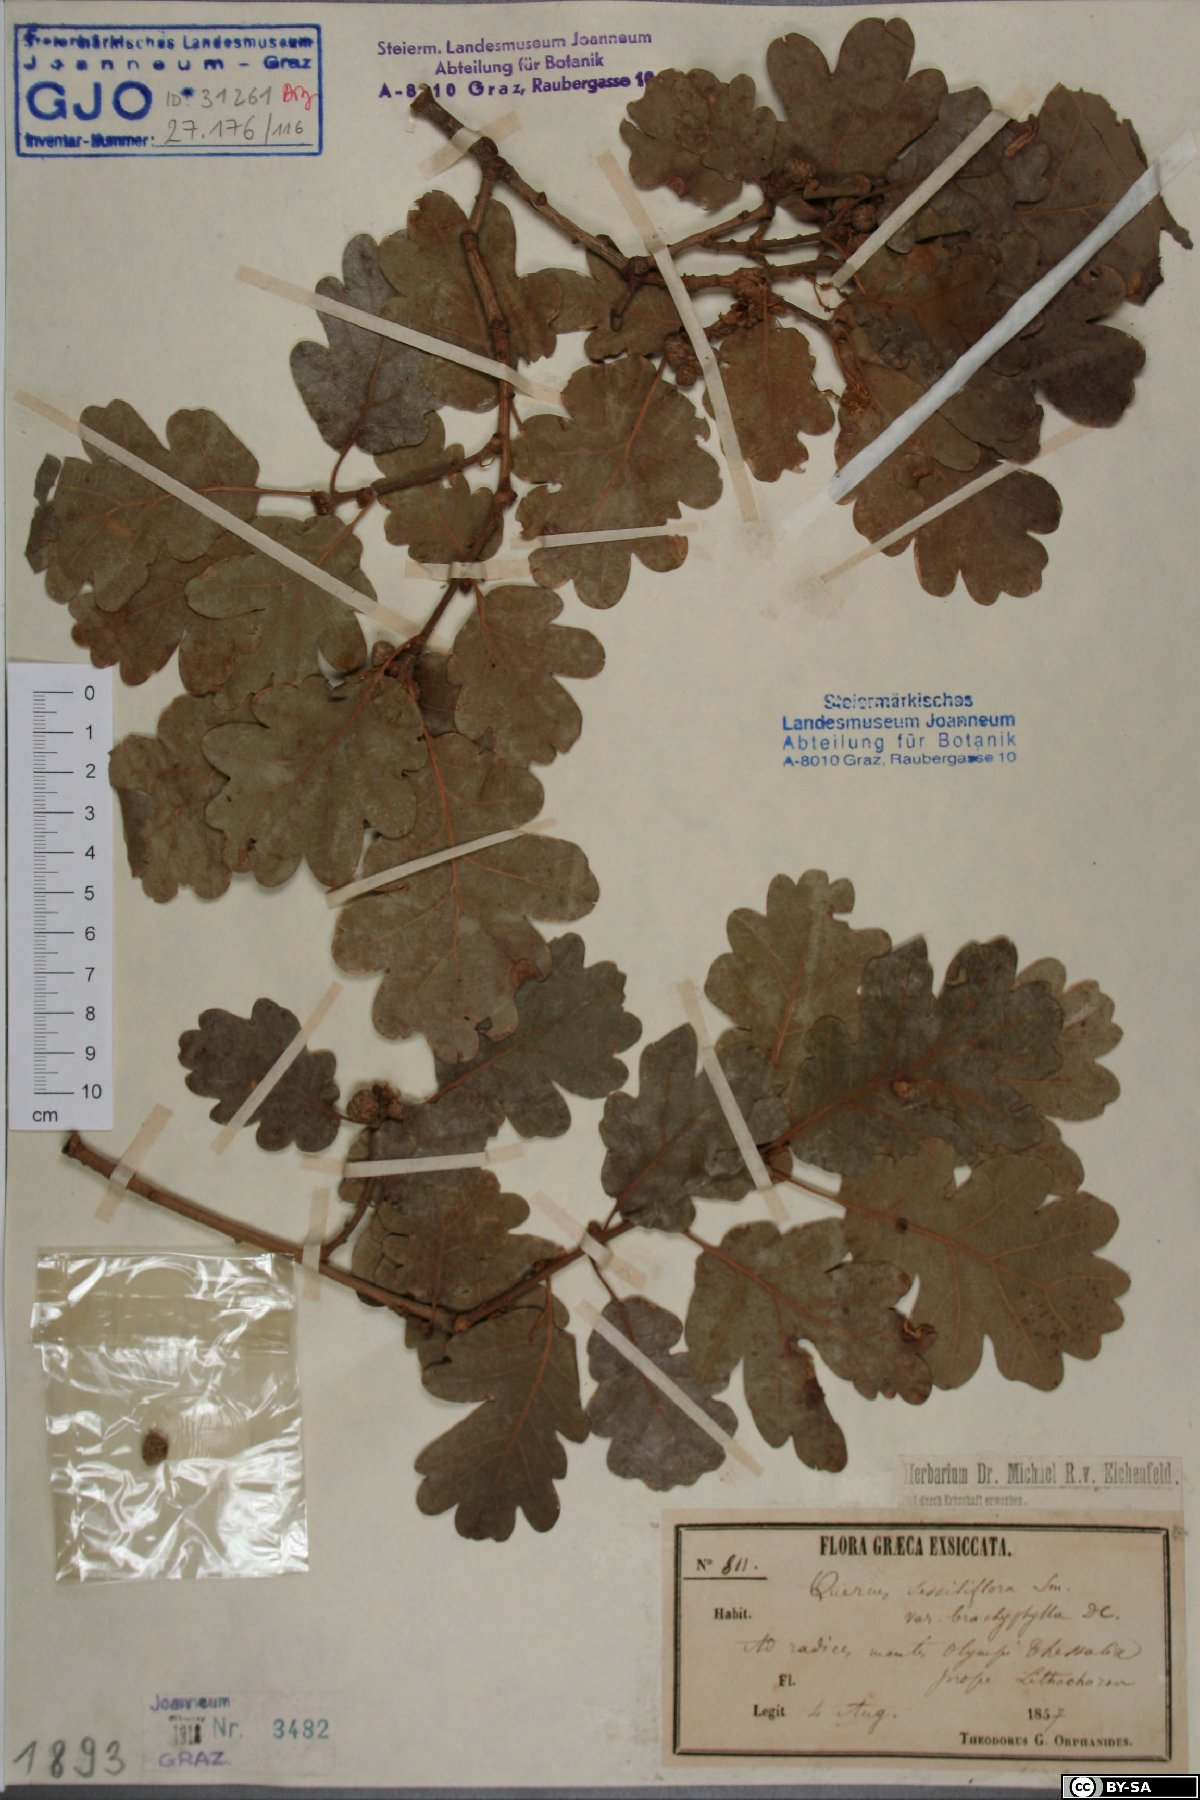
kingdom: Plantae
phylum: Tracheophyta
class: Magnoliopsida
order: Fagales
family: Fagaceae
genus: Quercus
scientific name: Quercus pubescens
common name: Downy oak
